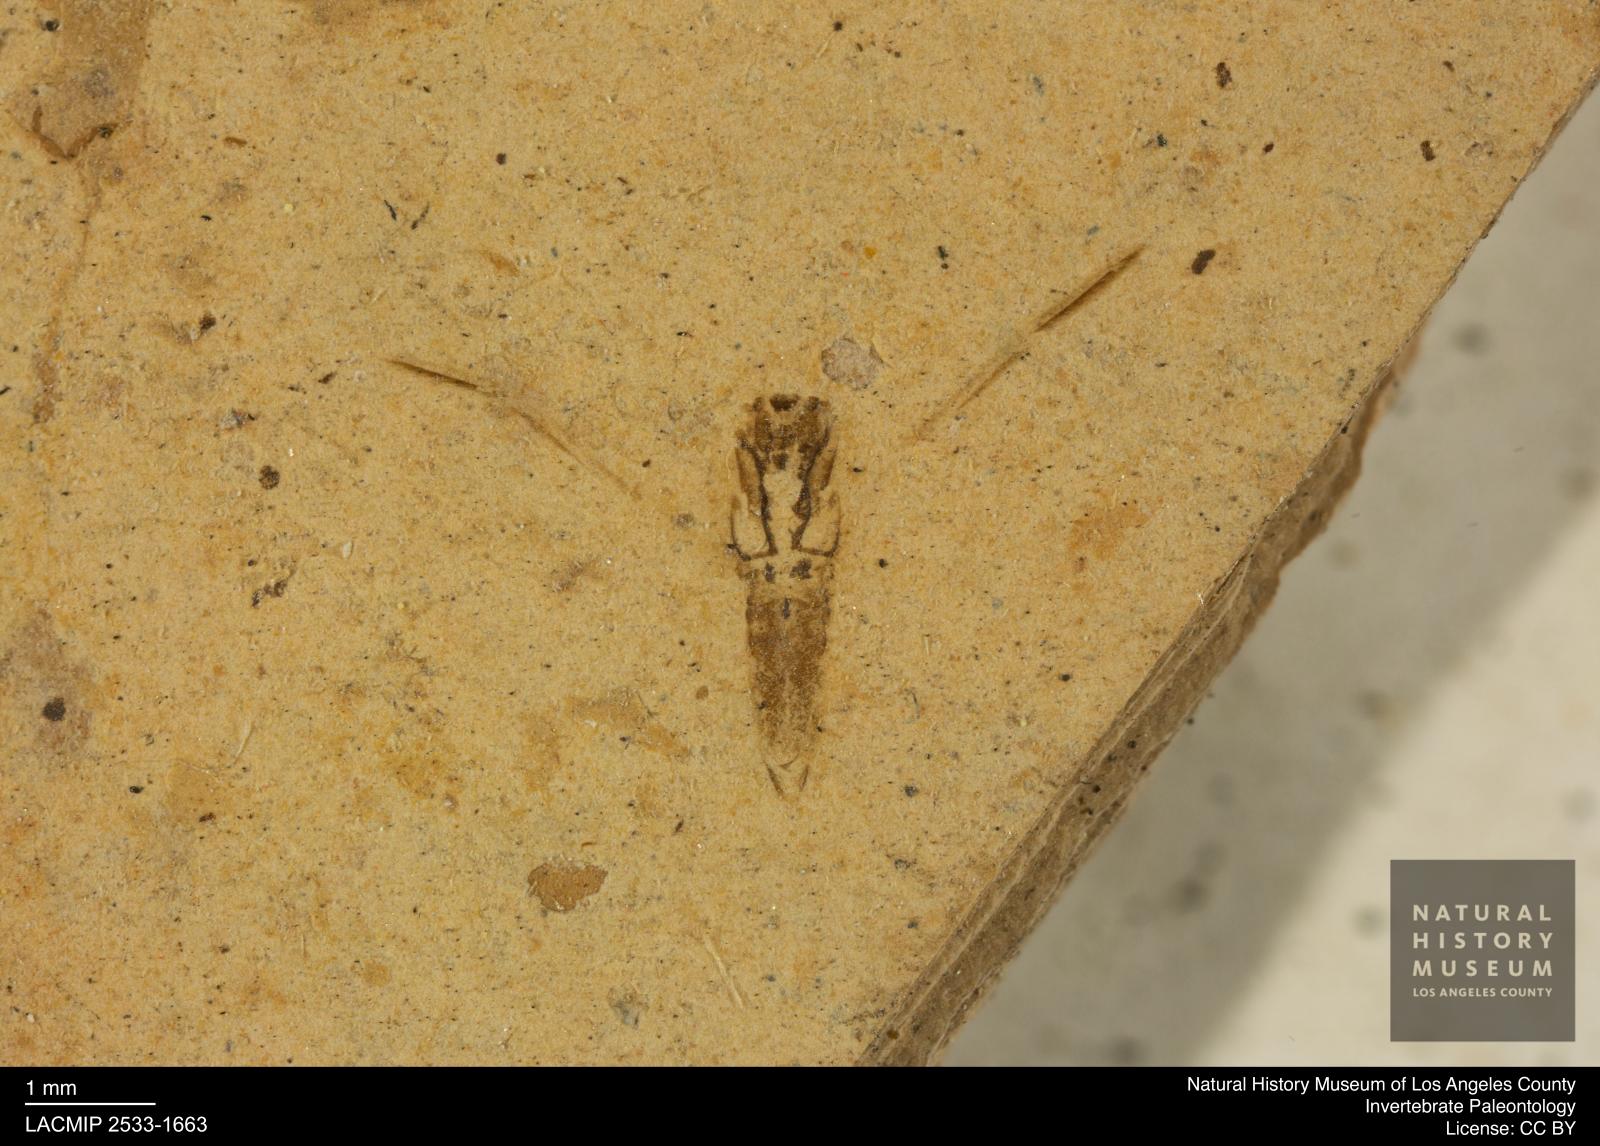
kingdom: Animalia
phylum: Arthropoda
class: Insecta
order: Hemiptera
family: Notonectidae
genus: Notonecta
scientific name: Notonecta
